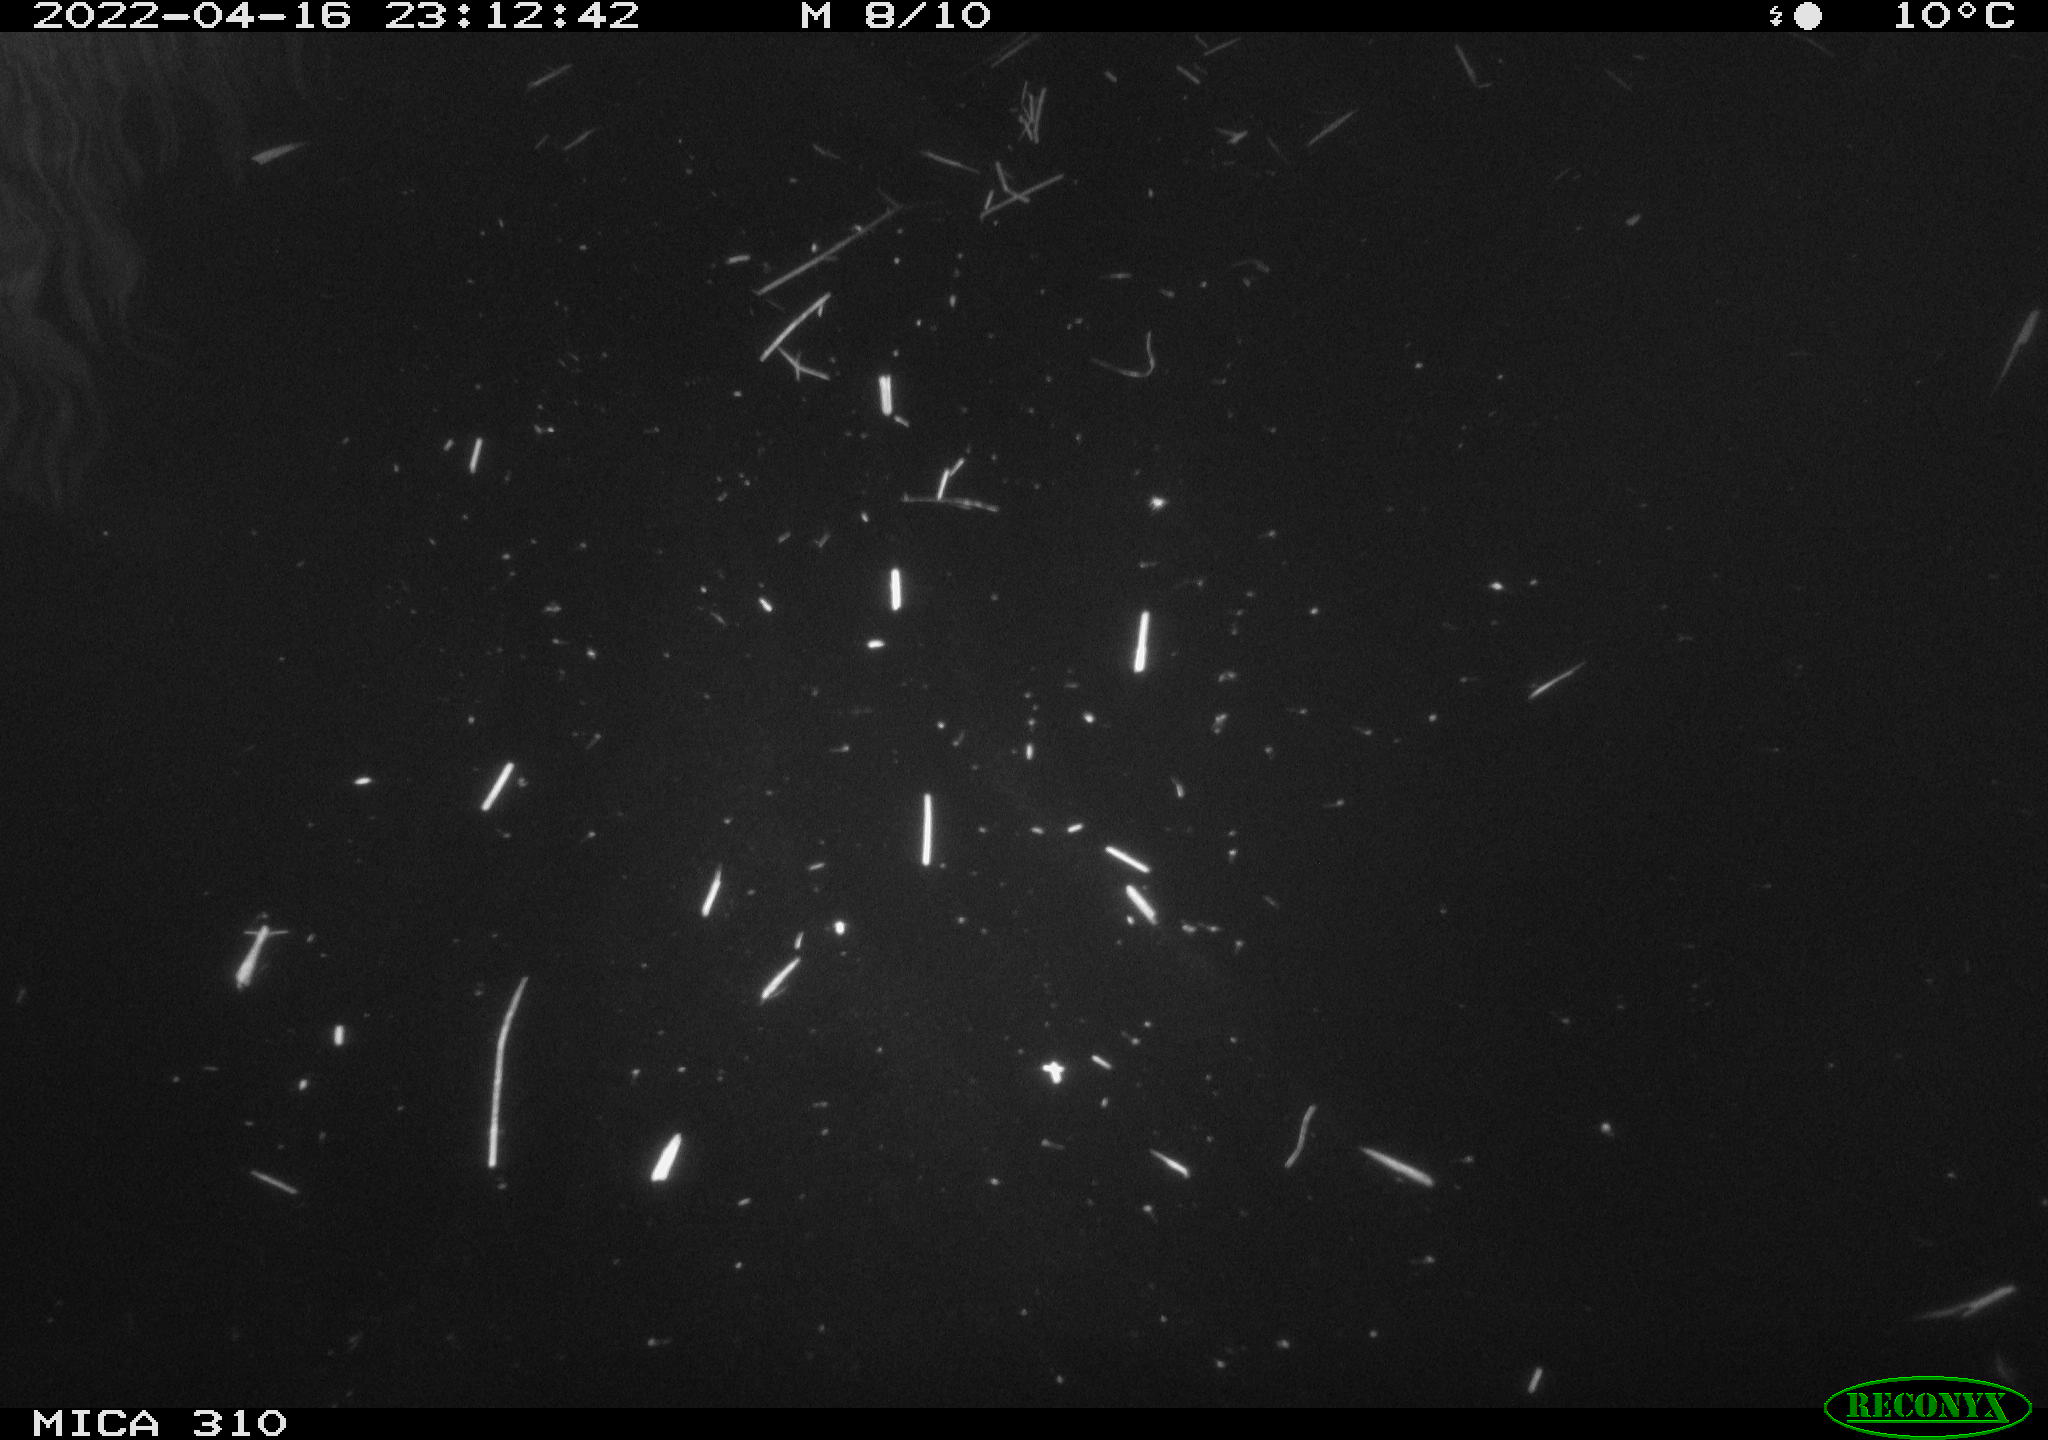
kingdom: Animalia
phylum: Chordata
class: Aves
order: Anseriformes
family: Anatidae
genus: Anas
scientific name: Anas platyrhynchos
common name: Mallard
